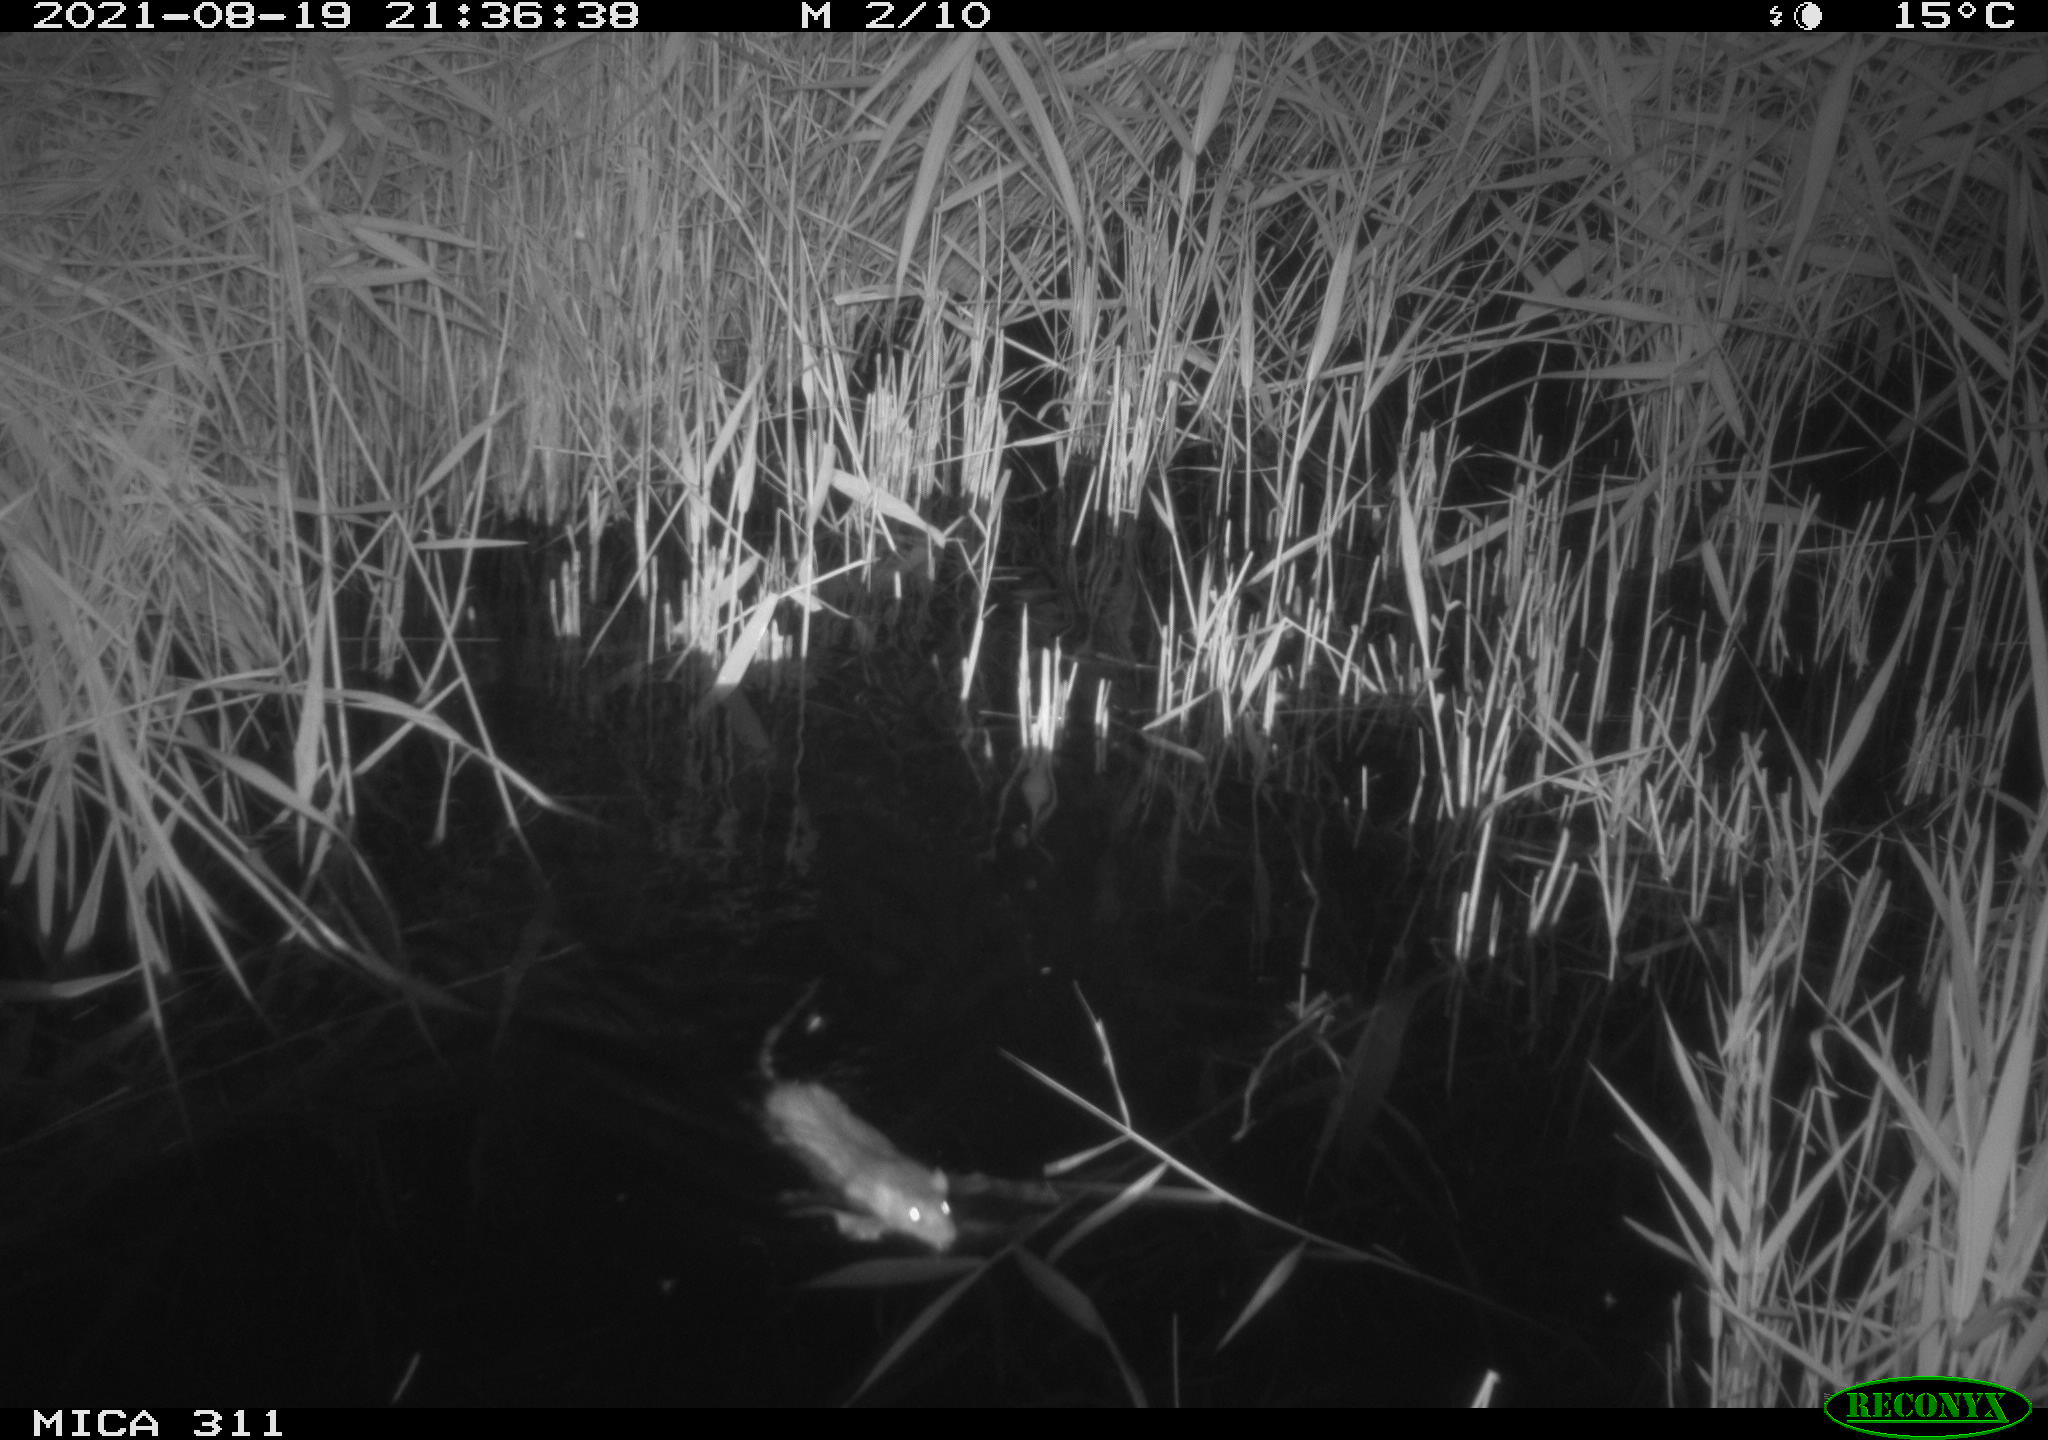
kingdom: Animalia
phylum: Chordata
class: Mammalia
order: Rodentia
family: Muridae
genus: Rattus
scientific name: Rattus norvegicus
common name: Brown rat
